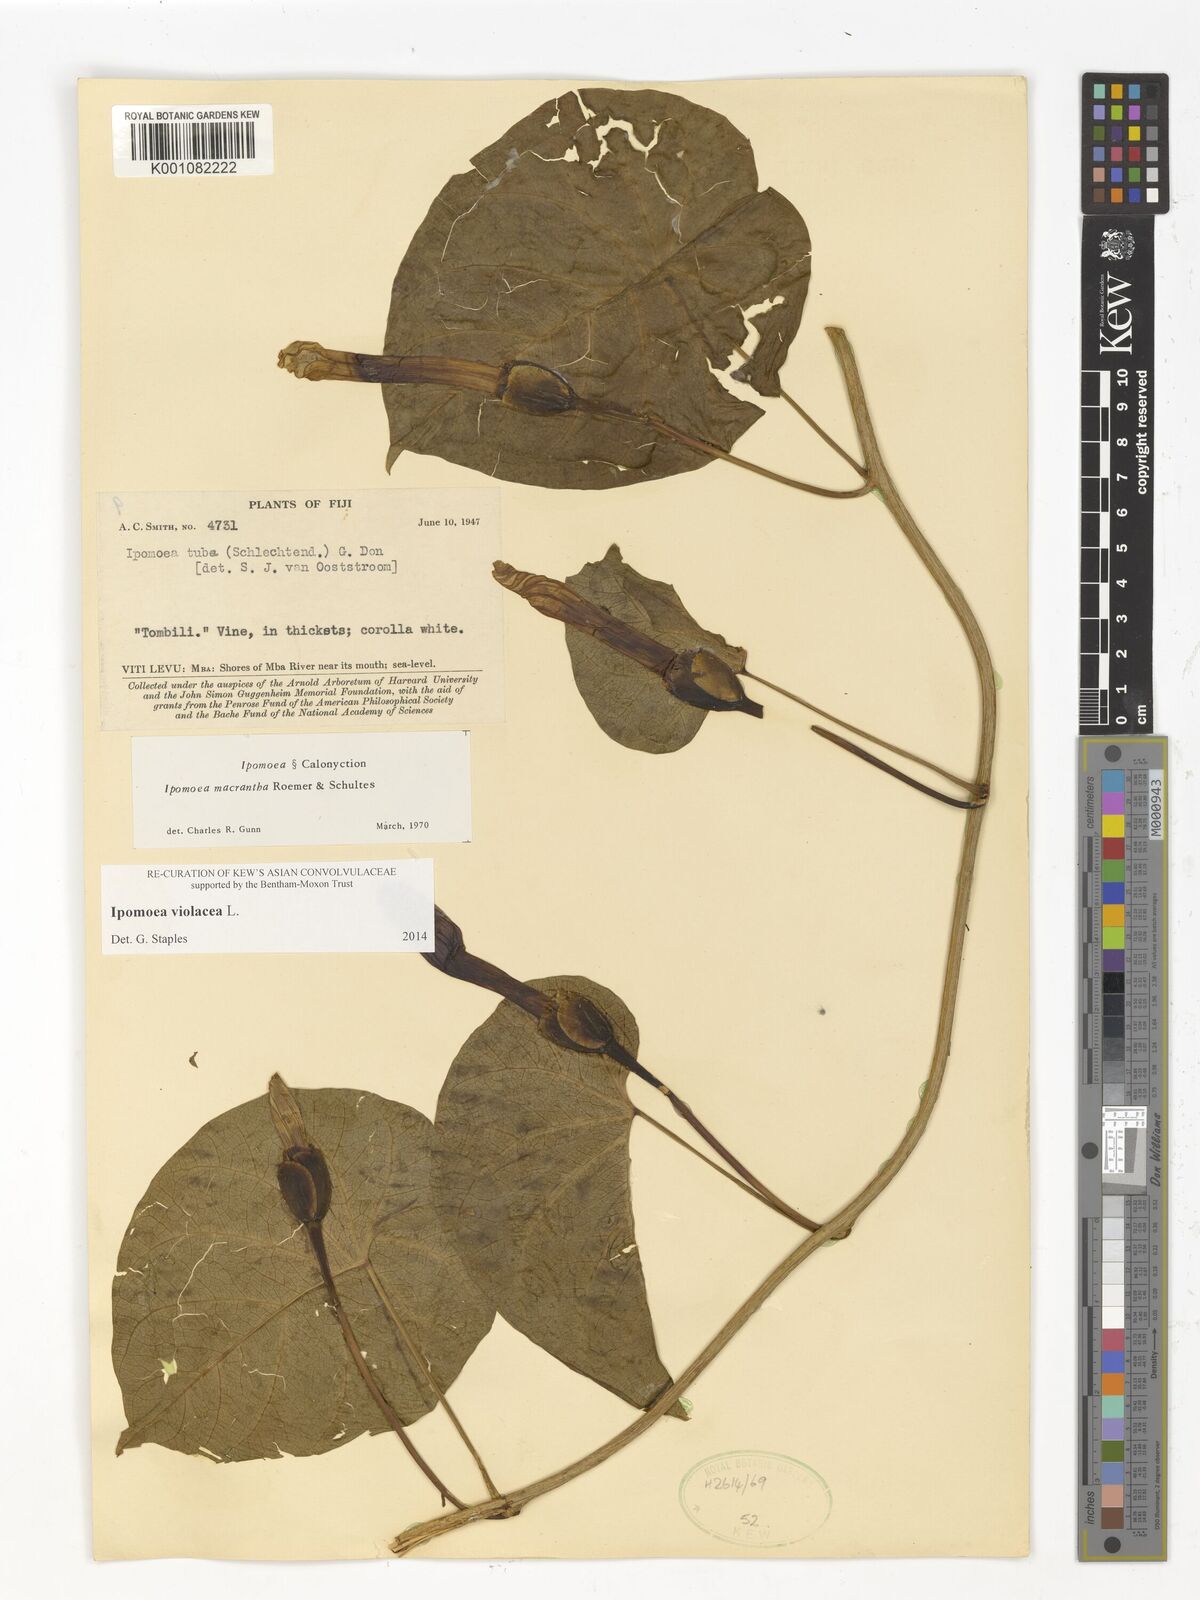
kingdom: Plantae
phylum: Tracheophyta
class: Magnoliopsida
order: Solanales
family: Convolvulaceae
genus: Ipomoea
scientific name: Ipomoea violacea
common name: Beach moonflower
